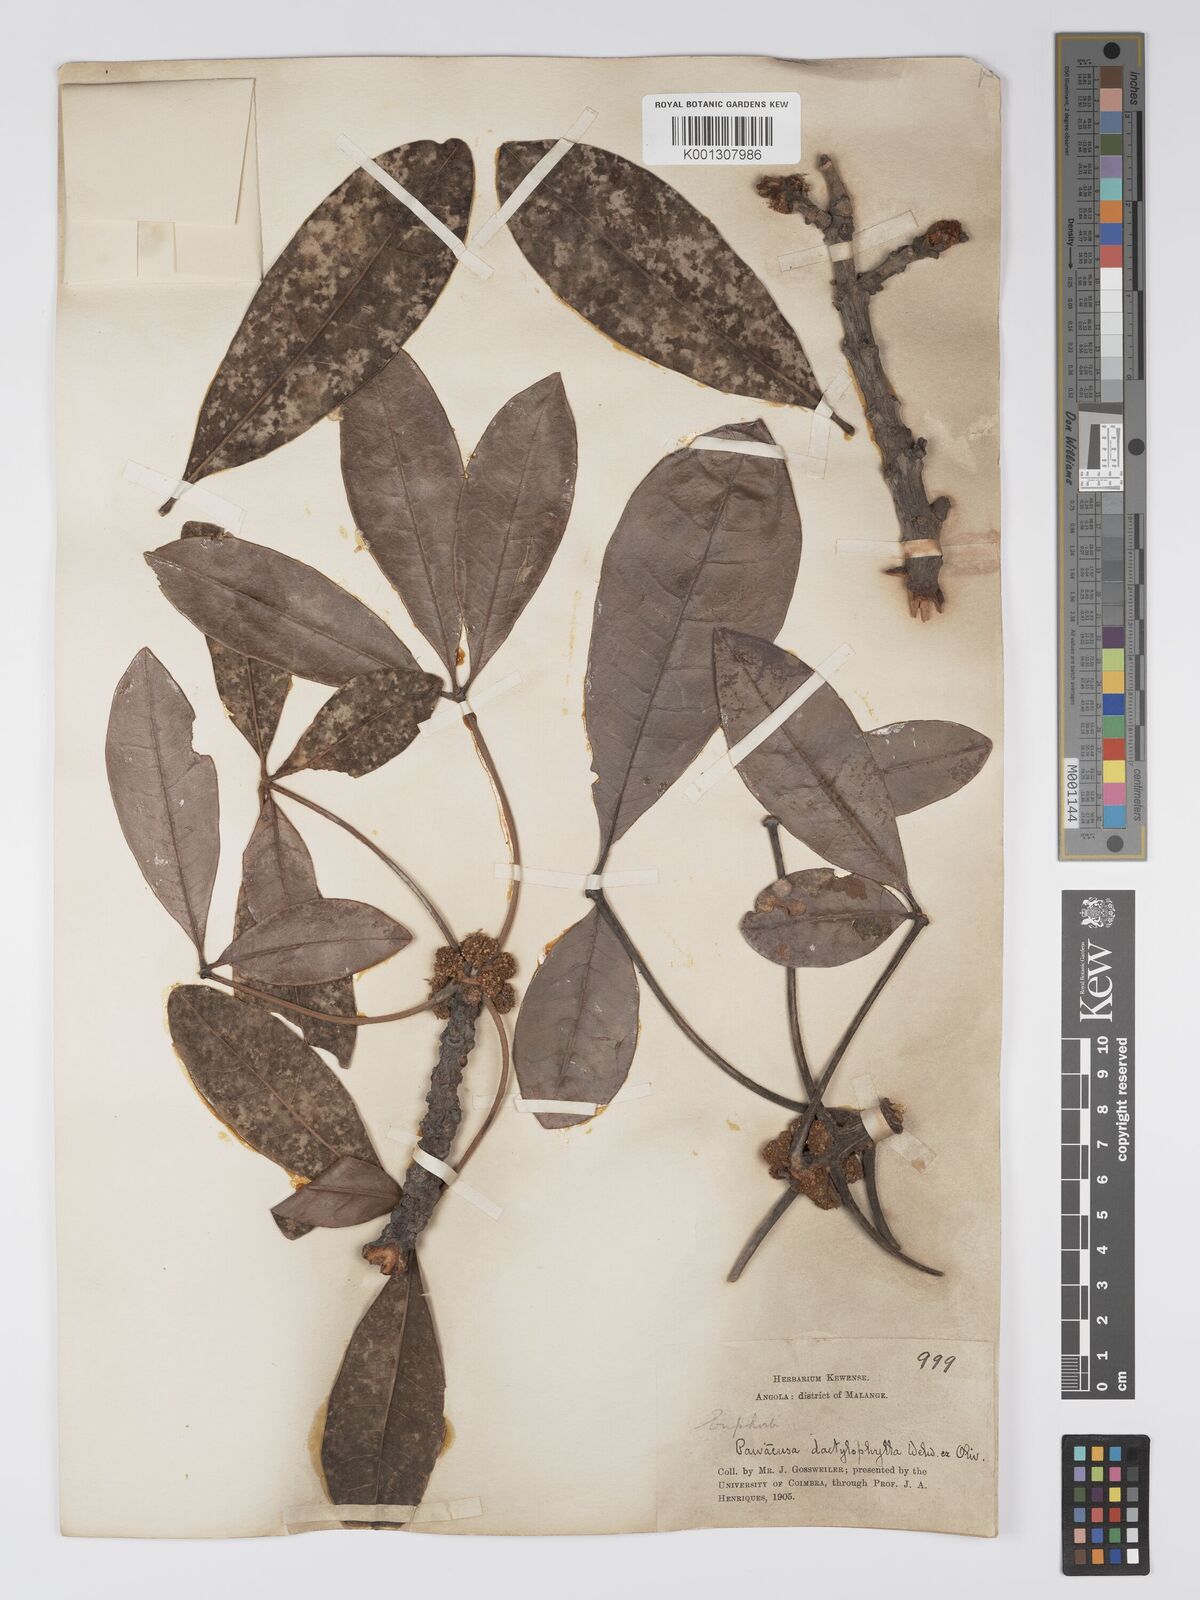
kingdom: Plantae
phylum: Tracheophyta
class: Magnoliopsida
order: Malpighiales
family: Picrodendraceae
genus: Oldfieldia
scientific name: Oldfieldia dactylophylla
